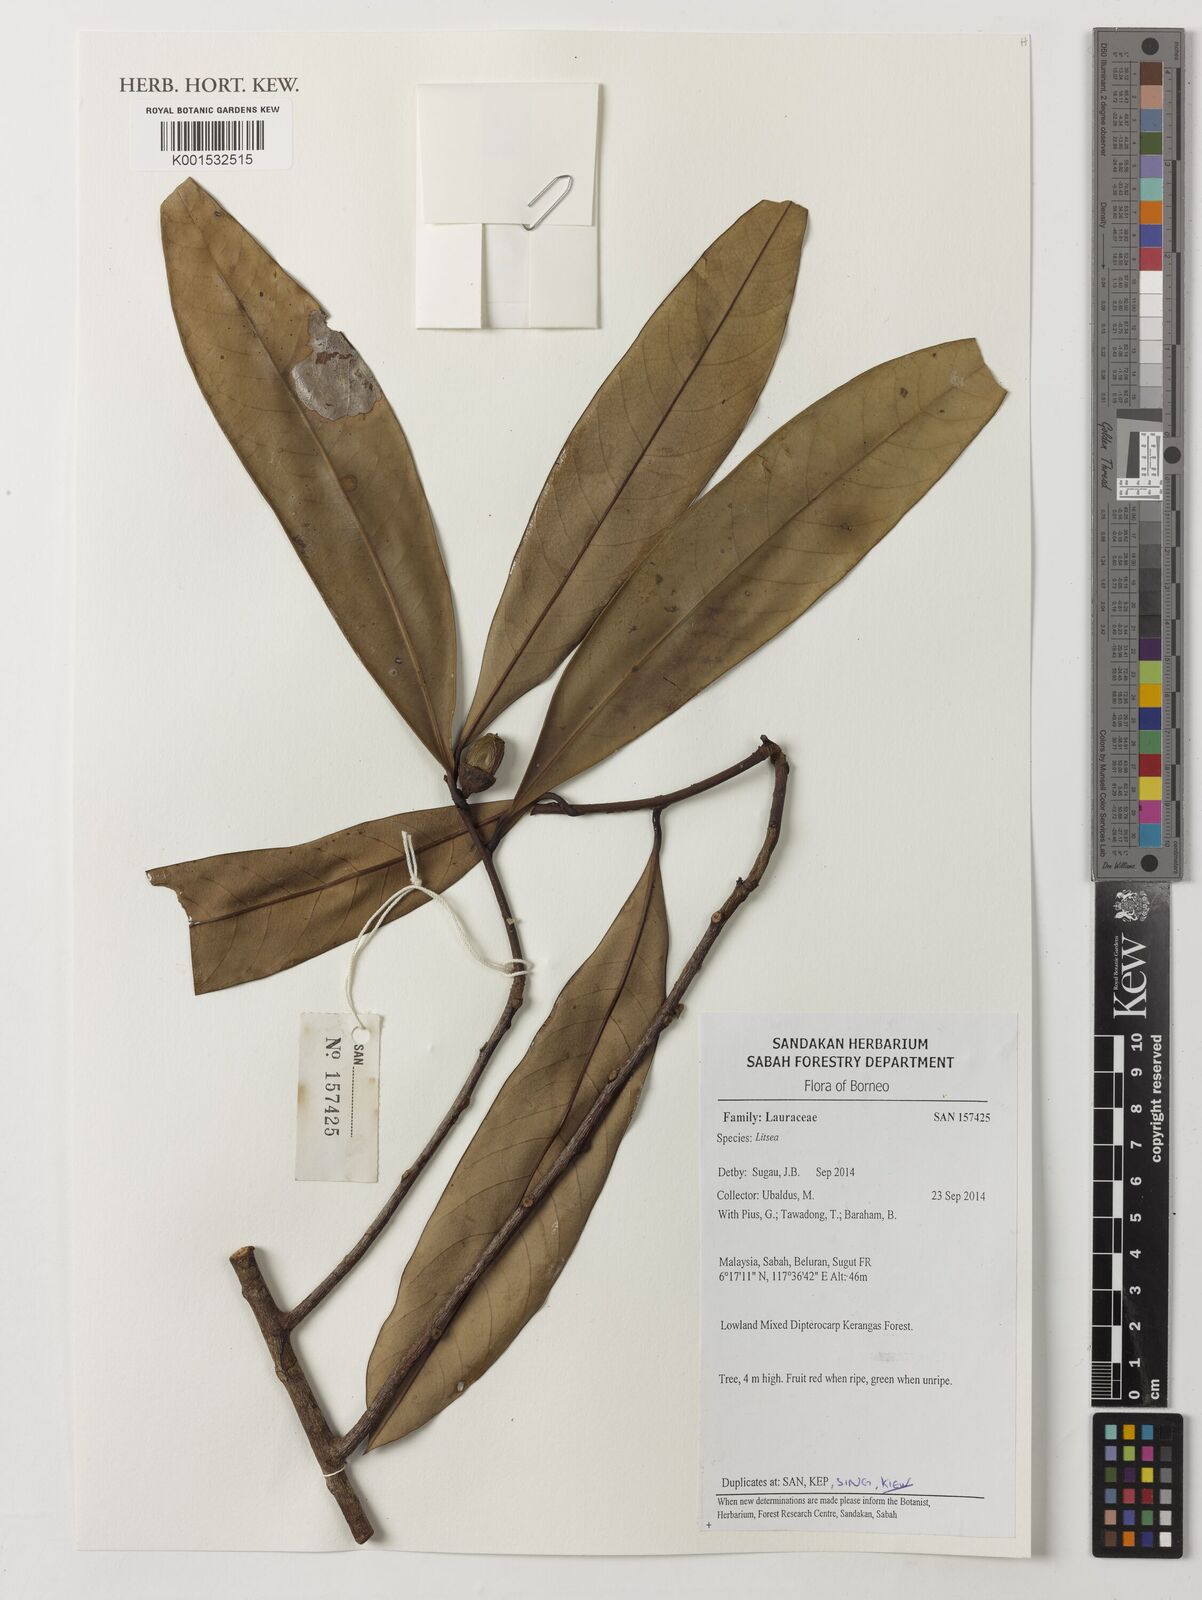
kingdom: Plantae
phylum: Tracheophyta
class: Magnoliopsida
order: Laurales
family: Lauraceae
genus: Litsea
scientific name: Litsea
